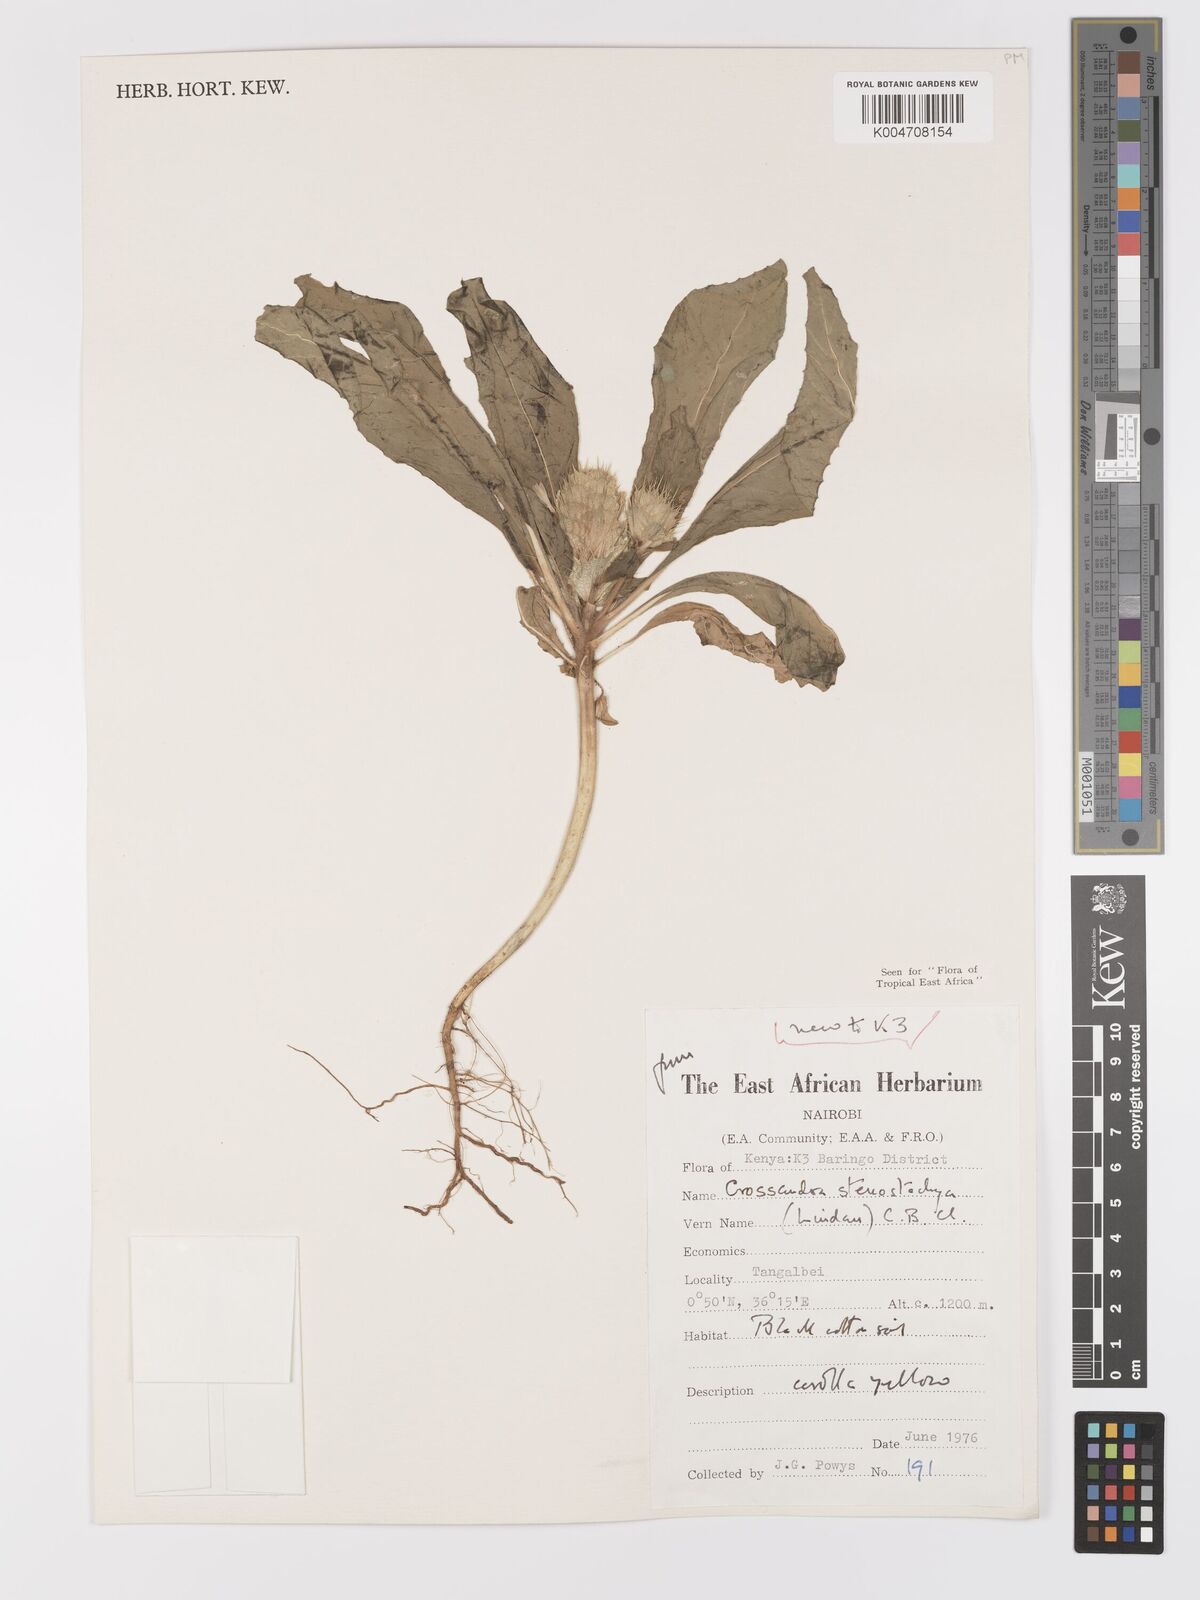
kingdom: Plantae
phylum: Tracheophyta
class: Magnoliopsida
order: Lamiales
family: Acanthaceae
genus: Crossandra
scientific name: Crossandra stenostachya
